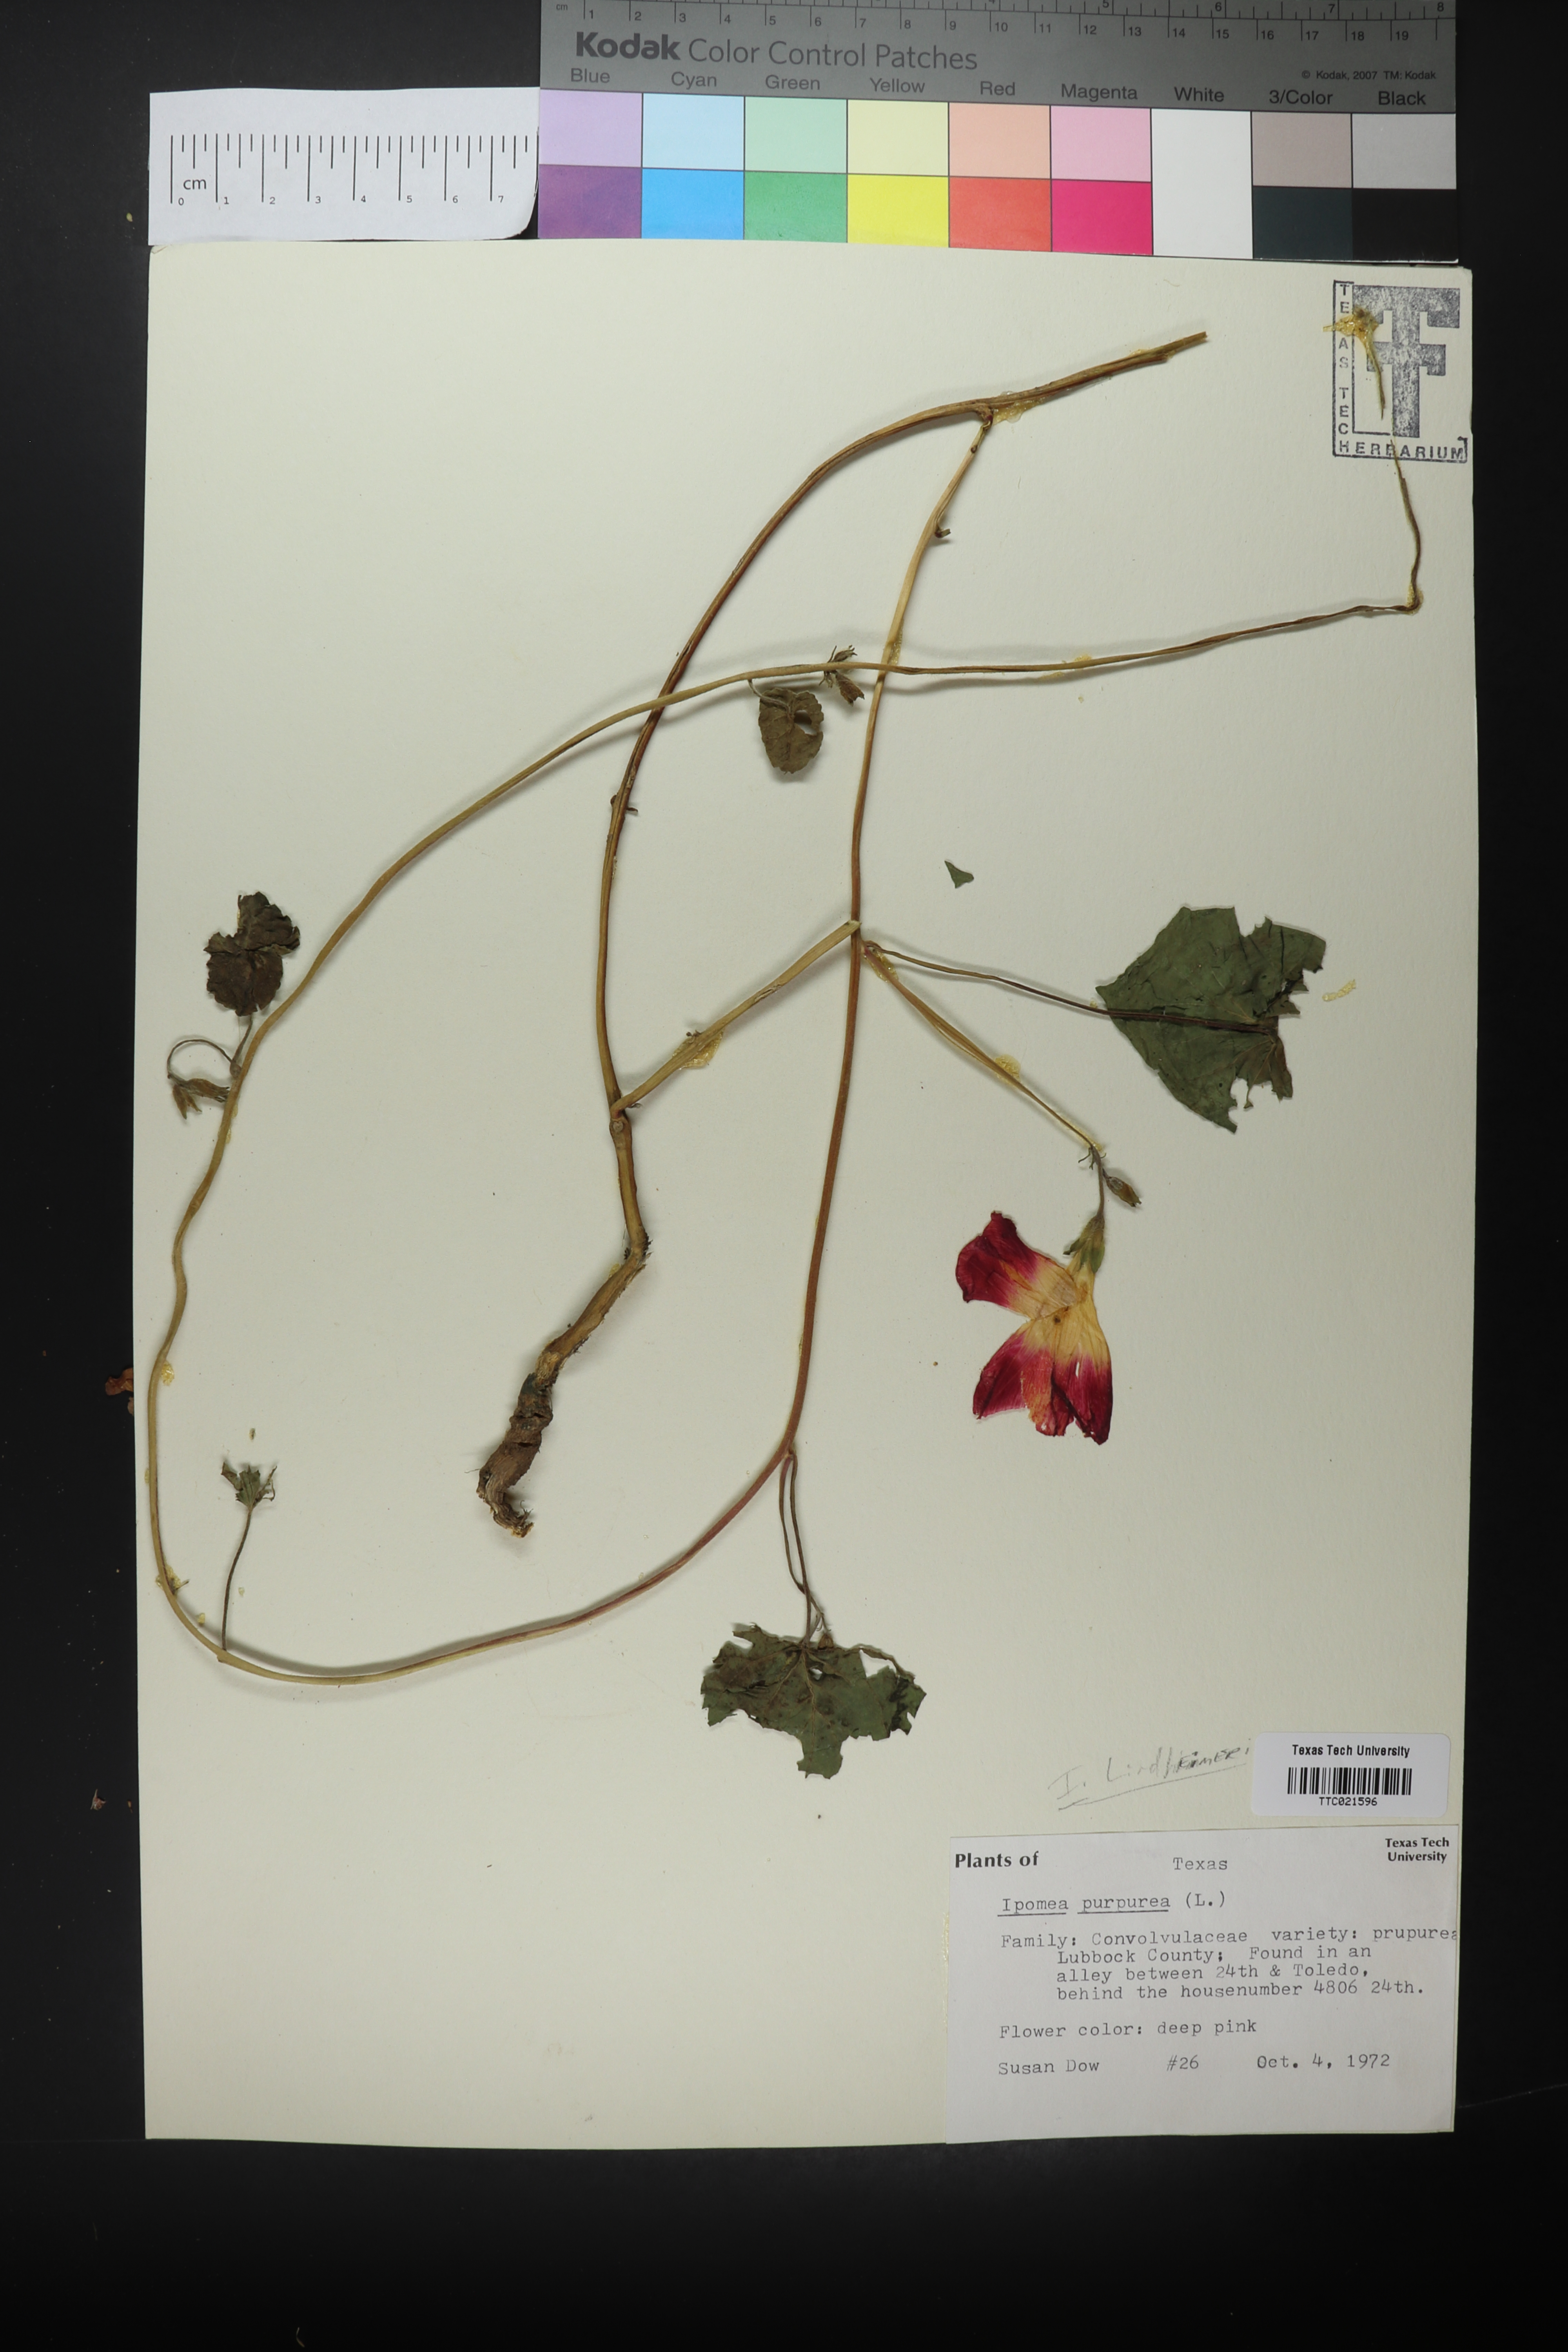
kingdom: Plantae
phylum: Tracheophyta
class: Magnoliopsida
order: Solanales
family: Convolvulaceae
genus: Ipomoea
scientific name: Ipomoea purpurea
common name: Common morning-glory
